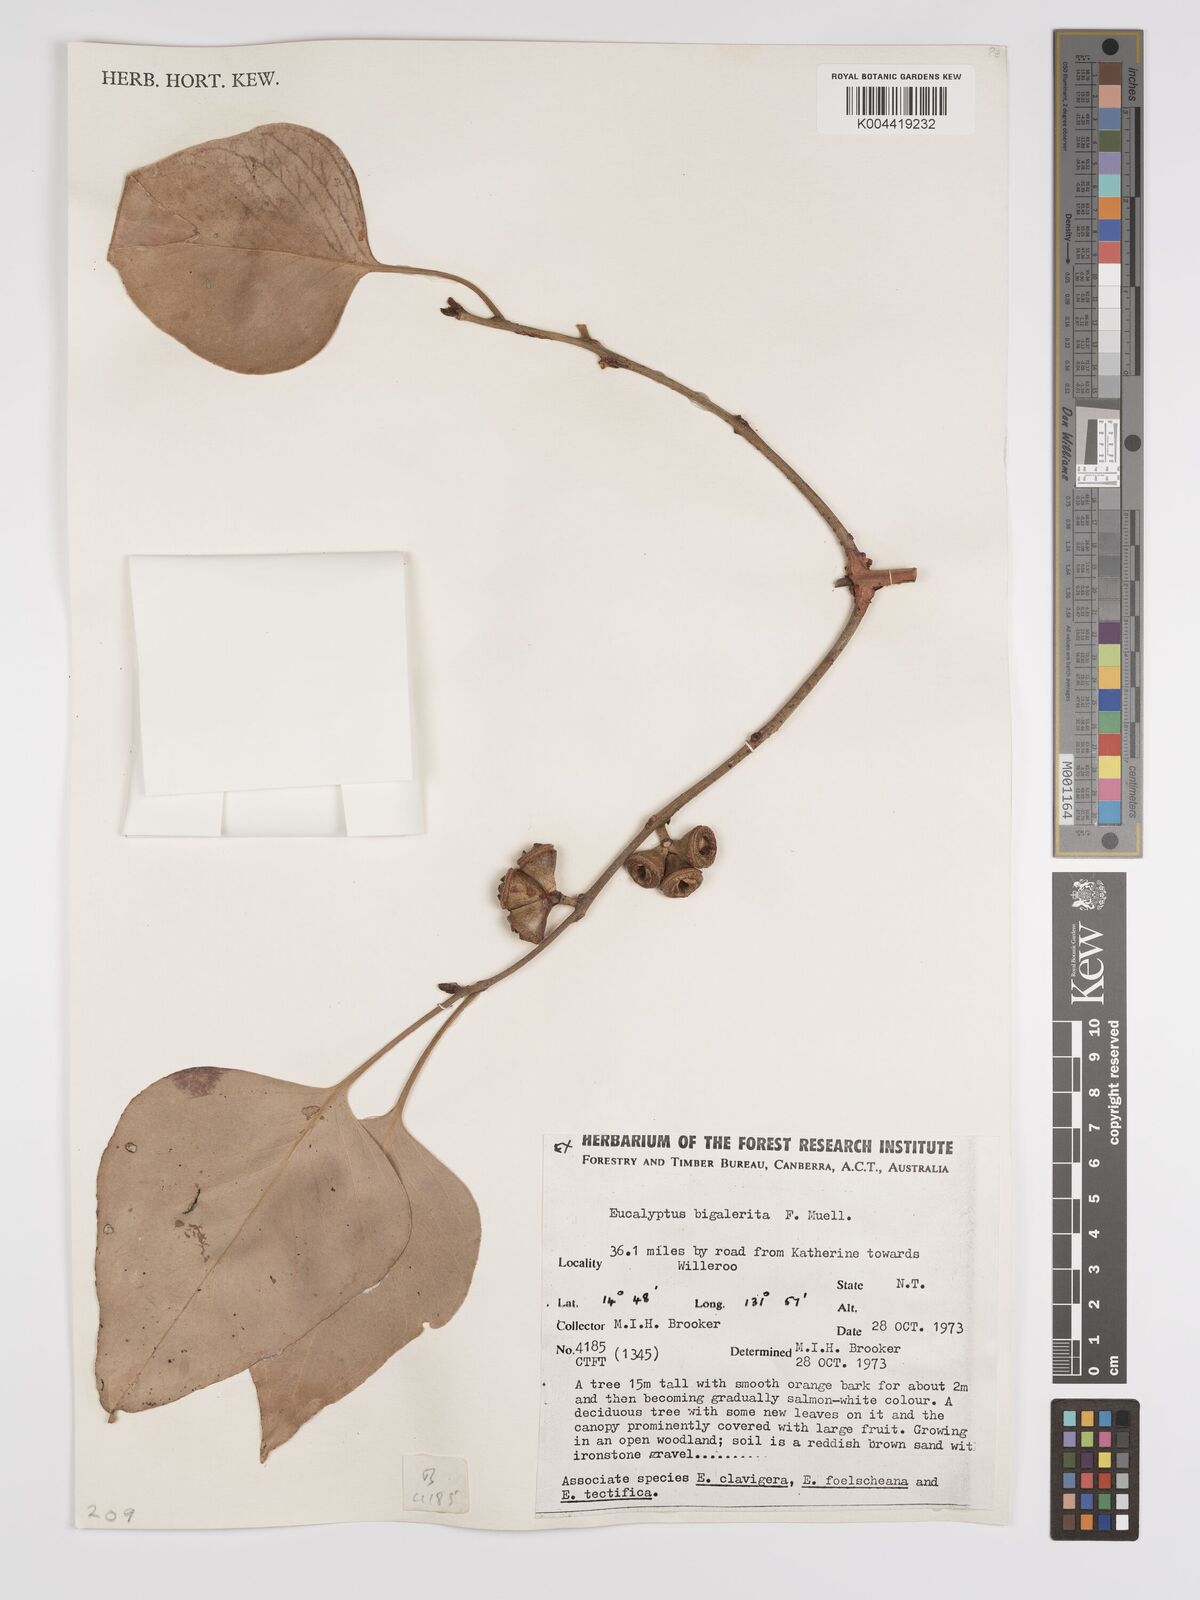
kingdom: Plantae
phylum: Tracheophyta
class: Magnoliopsida
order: Myrtales
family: Myrtaceae
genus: Eucalyptus
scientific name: Eucalyptus bigalerita
